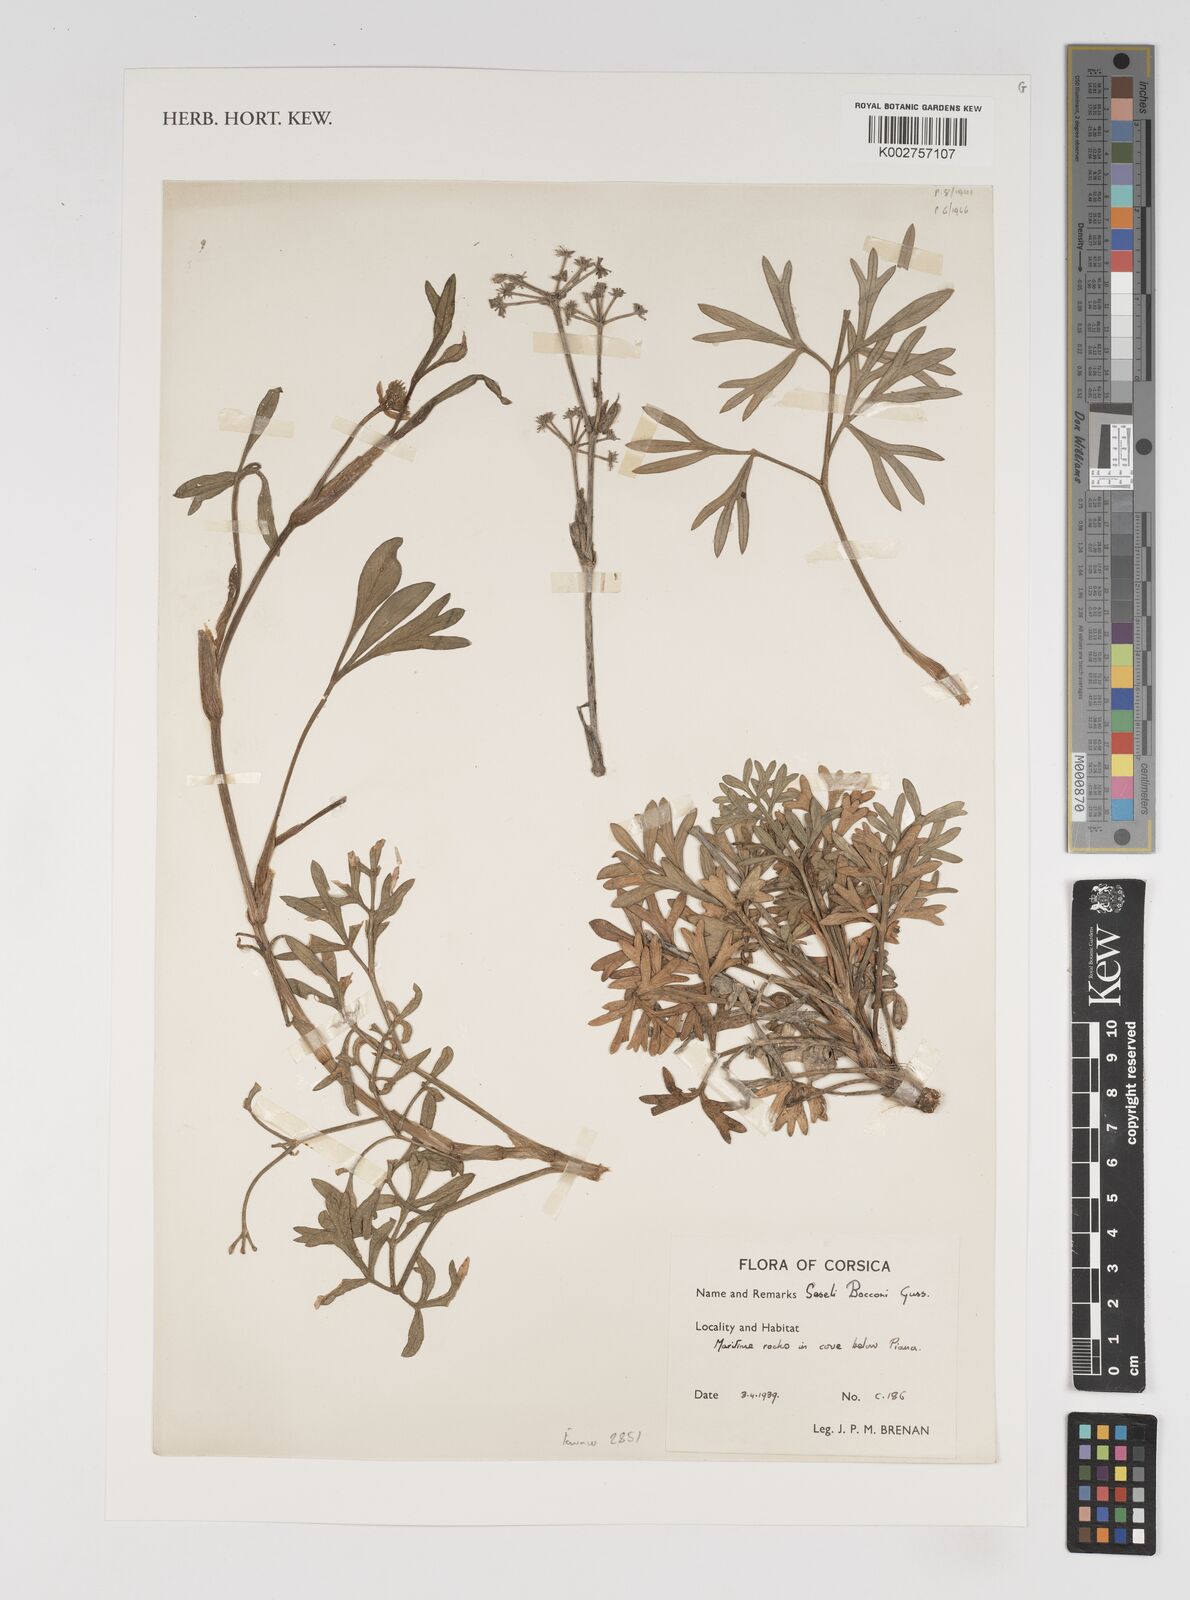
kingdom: Plantae
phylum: Tracheophyta
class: Magnoliopsida
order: Apiales
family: Apiaceae
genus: Seseli
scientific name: Seseli bocconei
